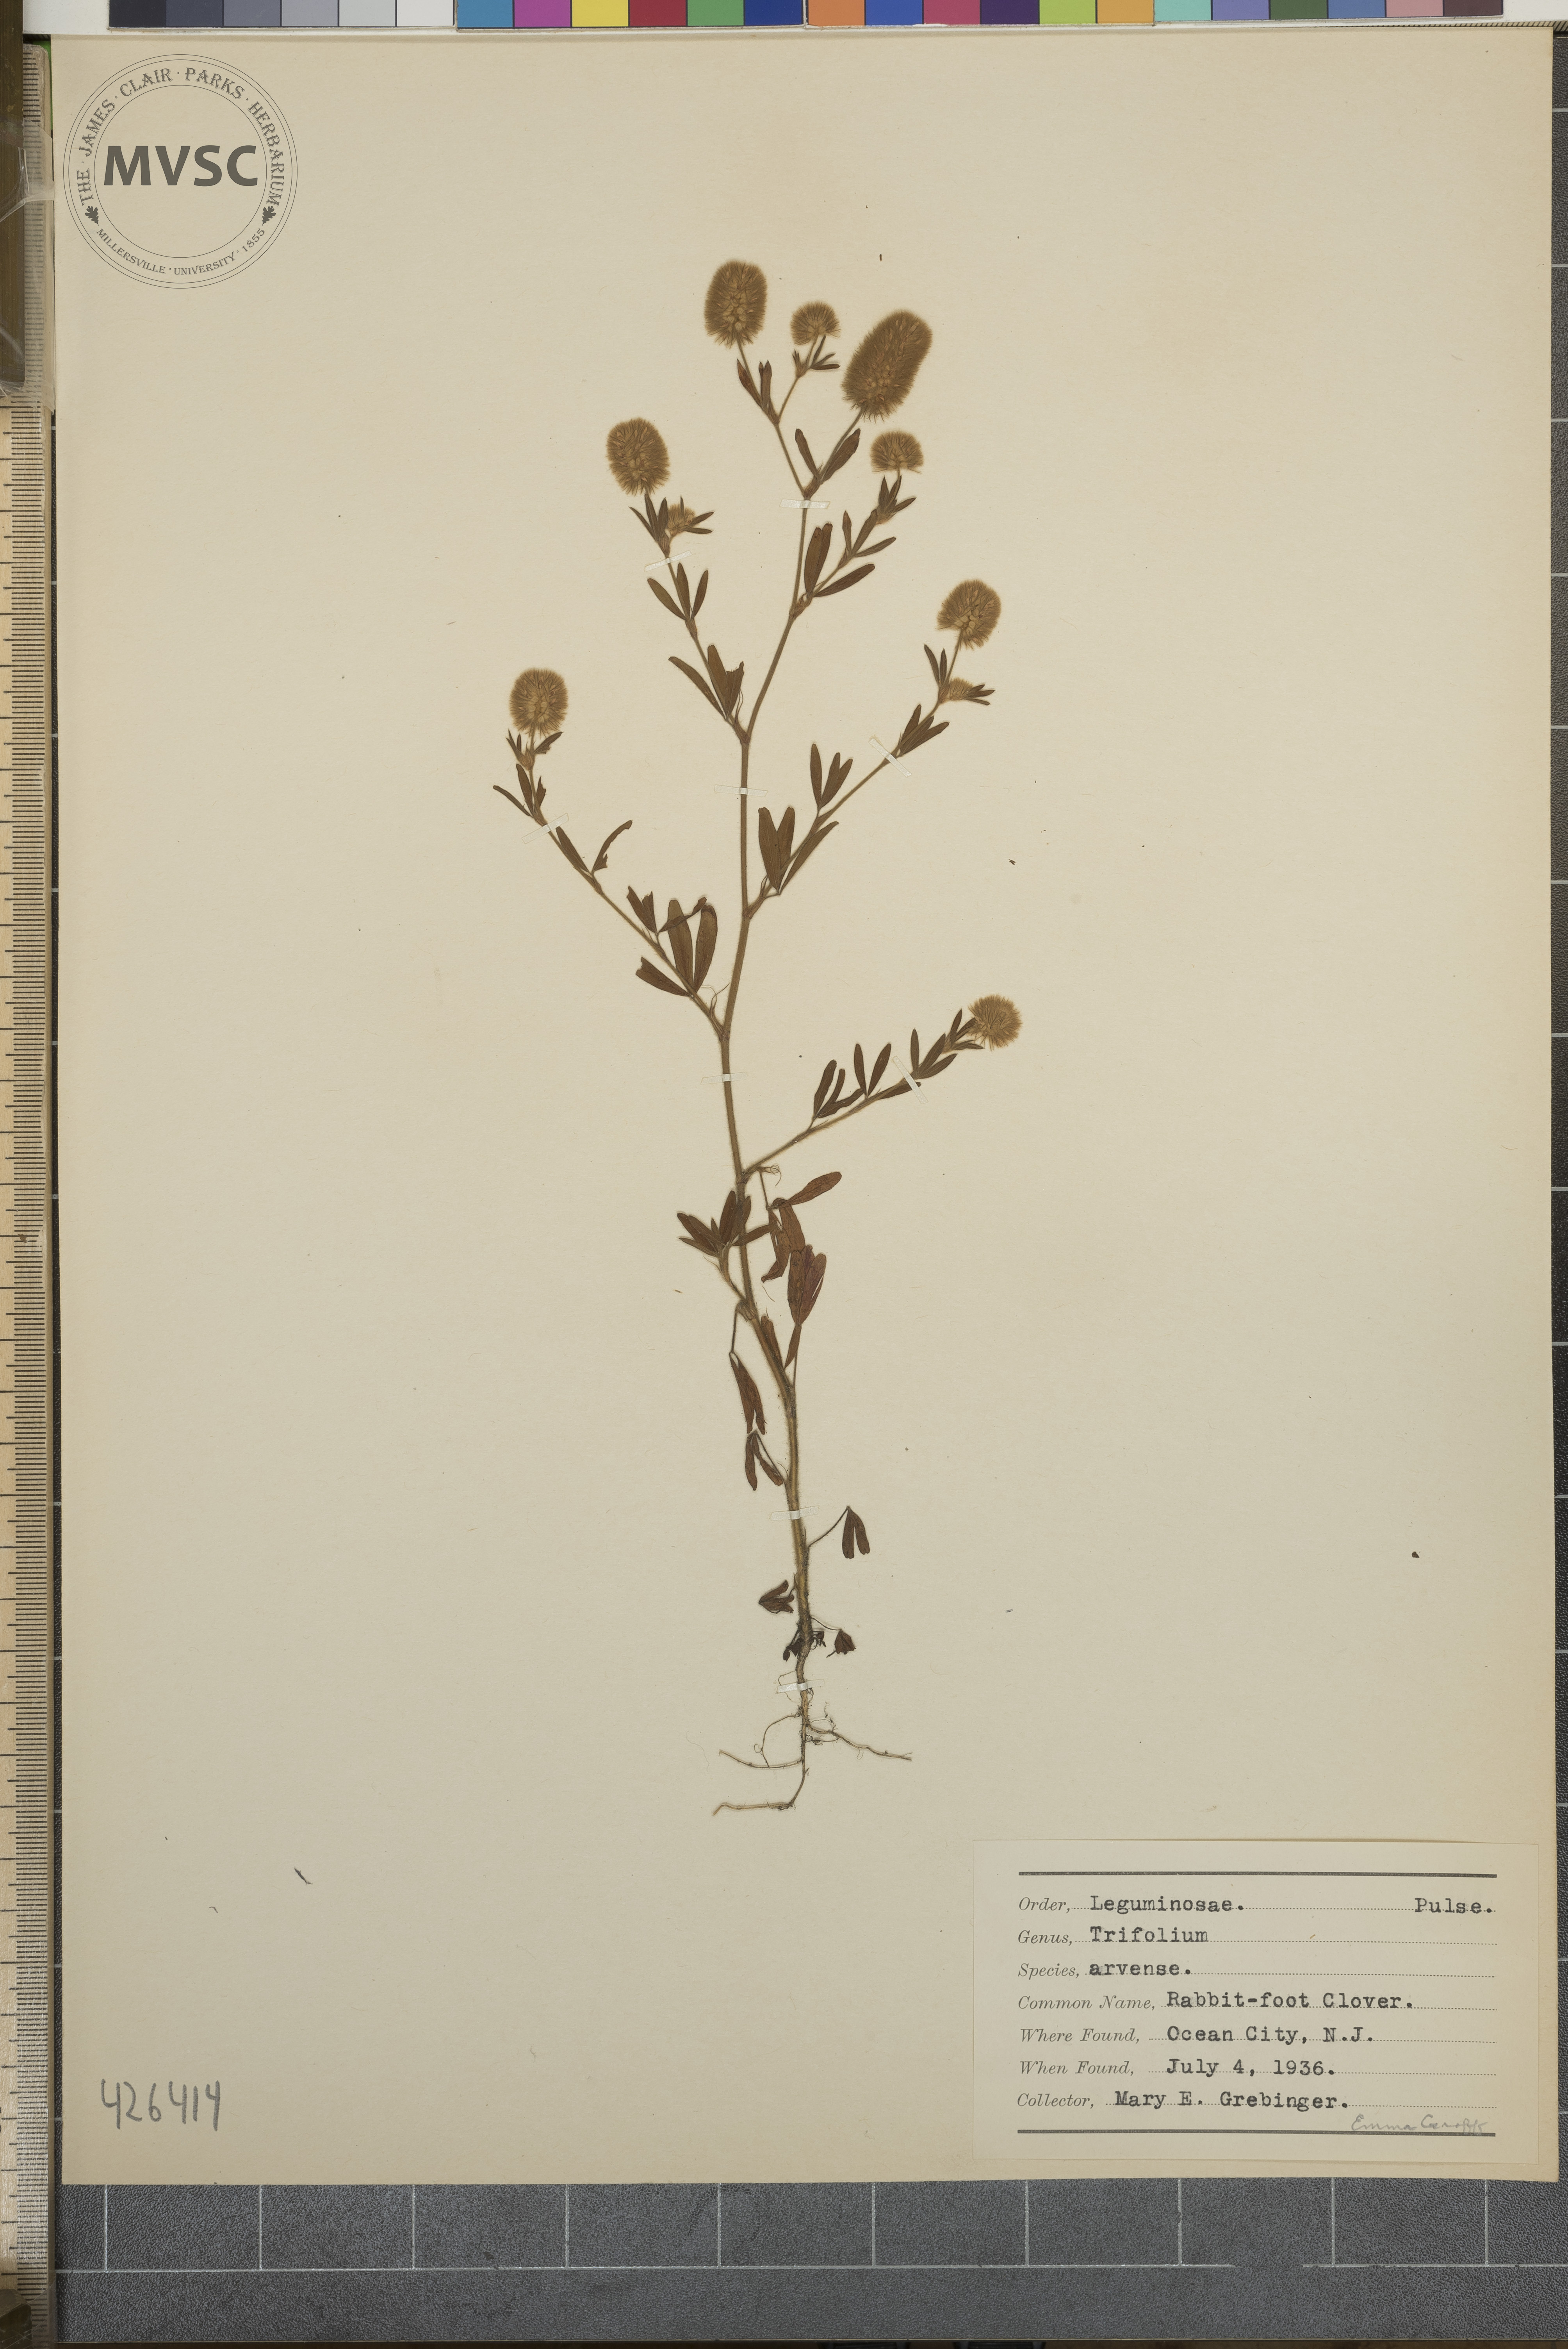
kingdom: Plantae
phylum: Tracheophyta
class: Magnoliopsida
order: Fabales
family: Fabaceae
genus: Trifolium
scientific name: Trifolium arvense
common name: Rabbit-foot Clover
